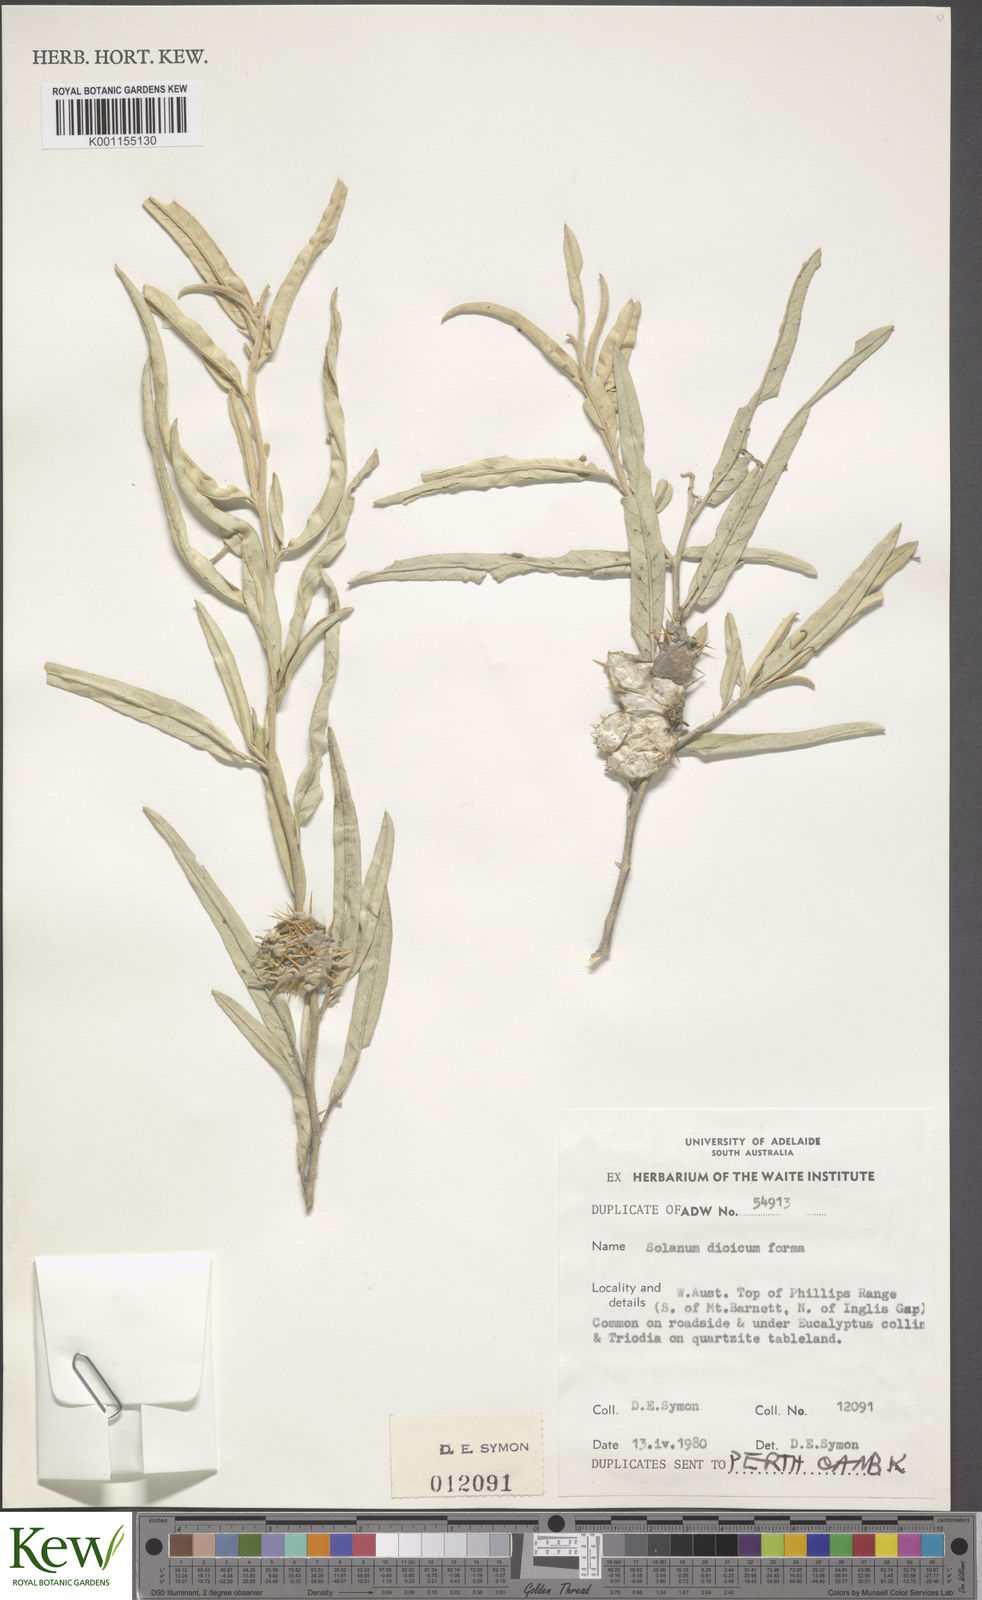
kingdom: Plantae
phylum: Tracheophyta
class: Magnoliopsida
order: Solanales
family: Solanaceae
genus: Solanum
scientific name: Solanum dioicum
